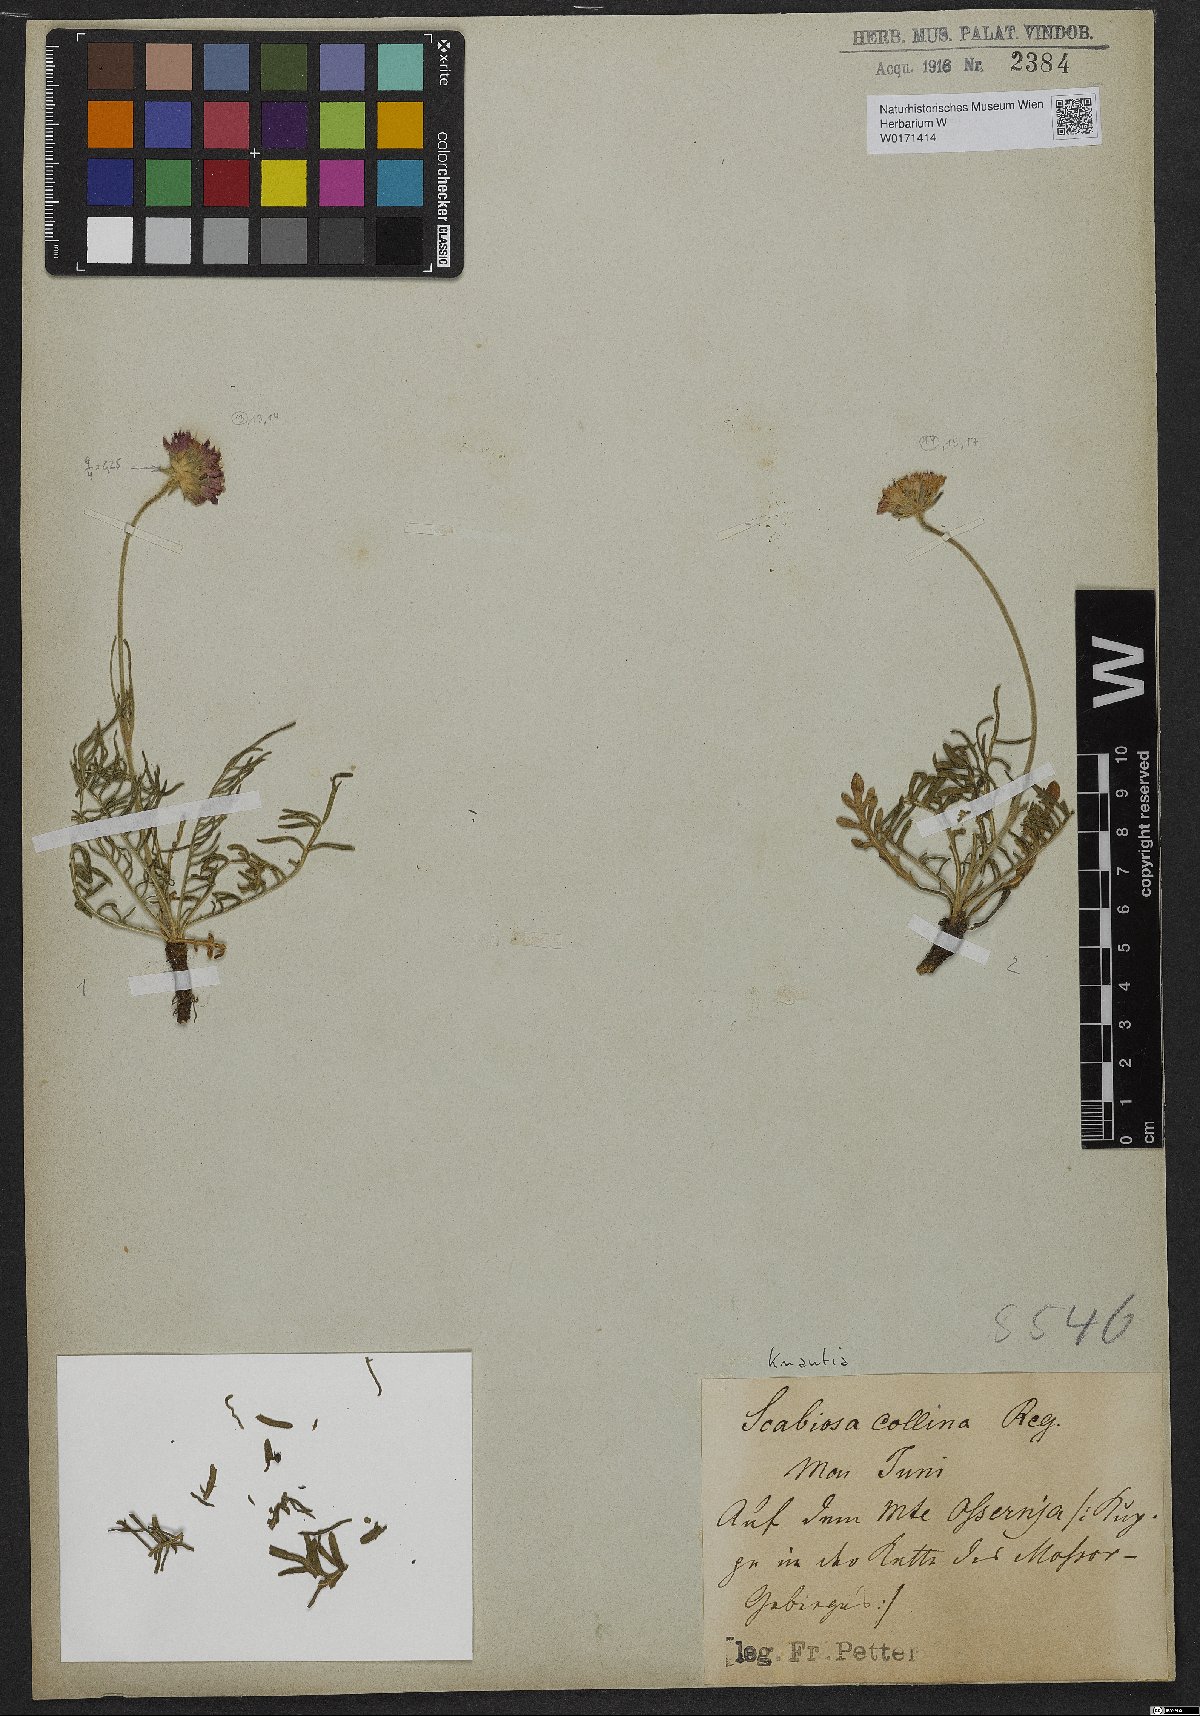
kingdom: Plantae
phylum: Tracheophyta
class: Magnoliopsida
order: Dipsacales
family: Caprifoliaceae
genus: Knautia
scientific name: Knautia
